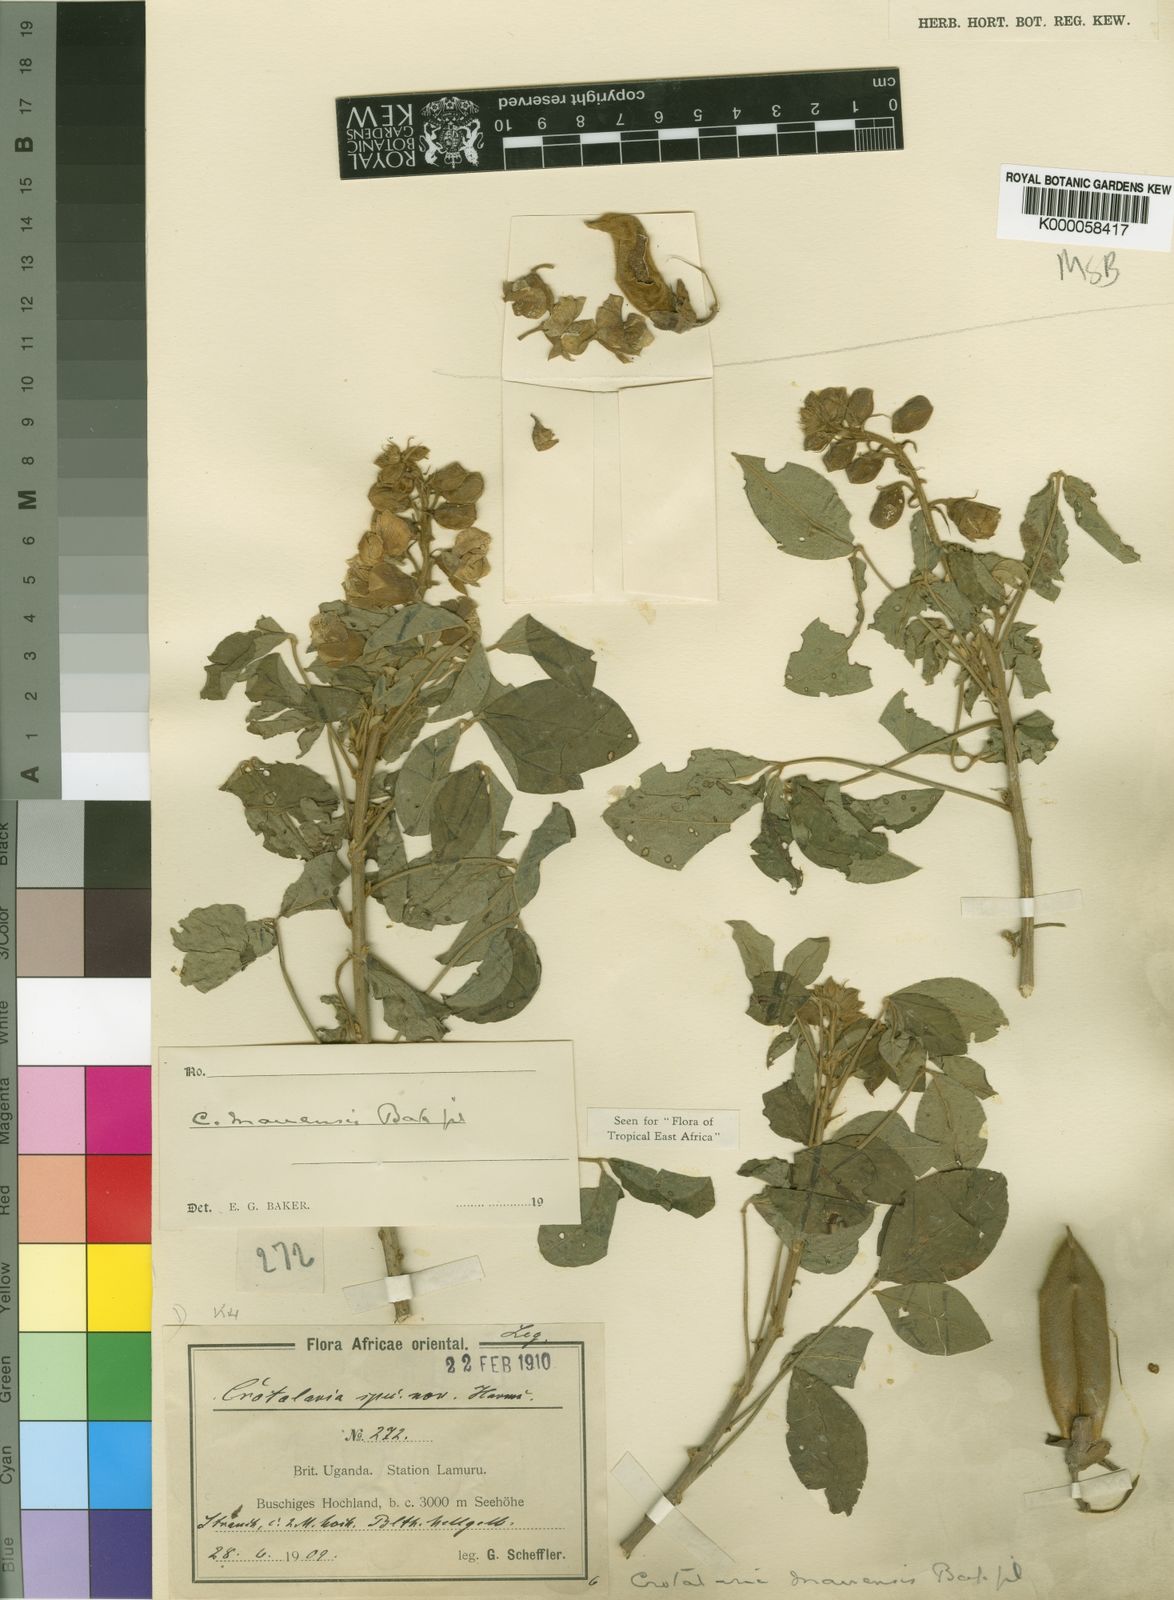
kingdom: Plantae
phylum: Tracheophyta
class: Magnoliopsida
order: Fabales
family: Fabaceae
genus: Crotalaria
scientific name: Crotalaria mauensis
